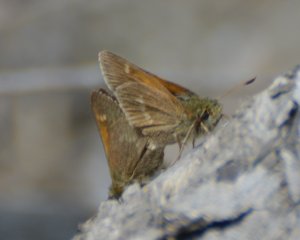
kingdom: Animalia
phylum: Arthropoda
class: Insecta
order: Lepidoptera
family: Hesperiidae
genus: Polites
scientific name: Polites themistocles
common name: Tawny-edged Skipper
